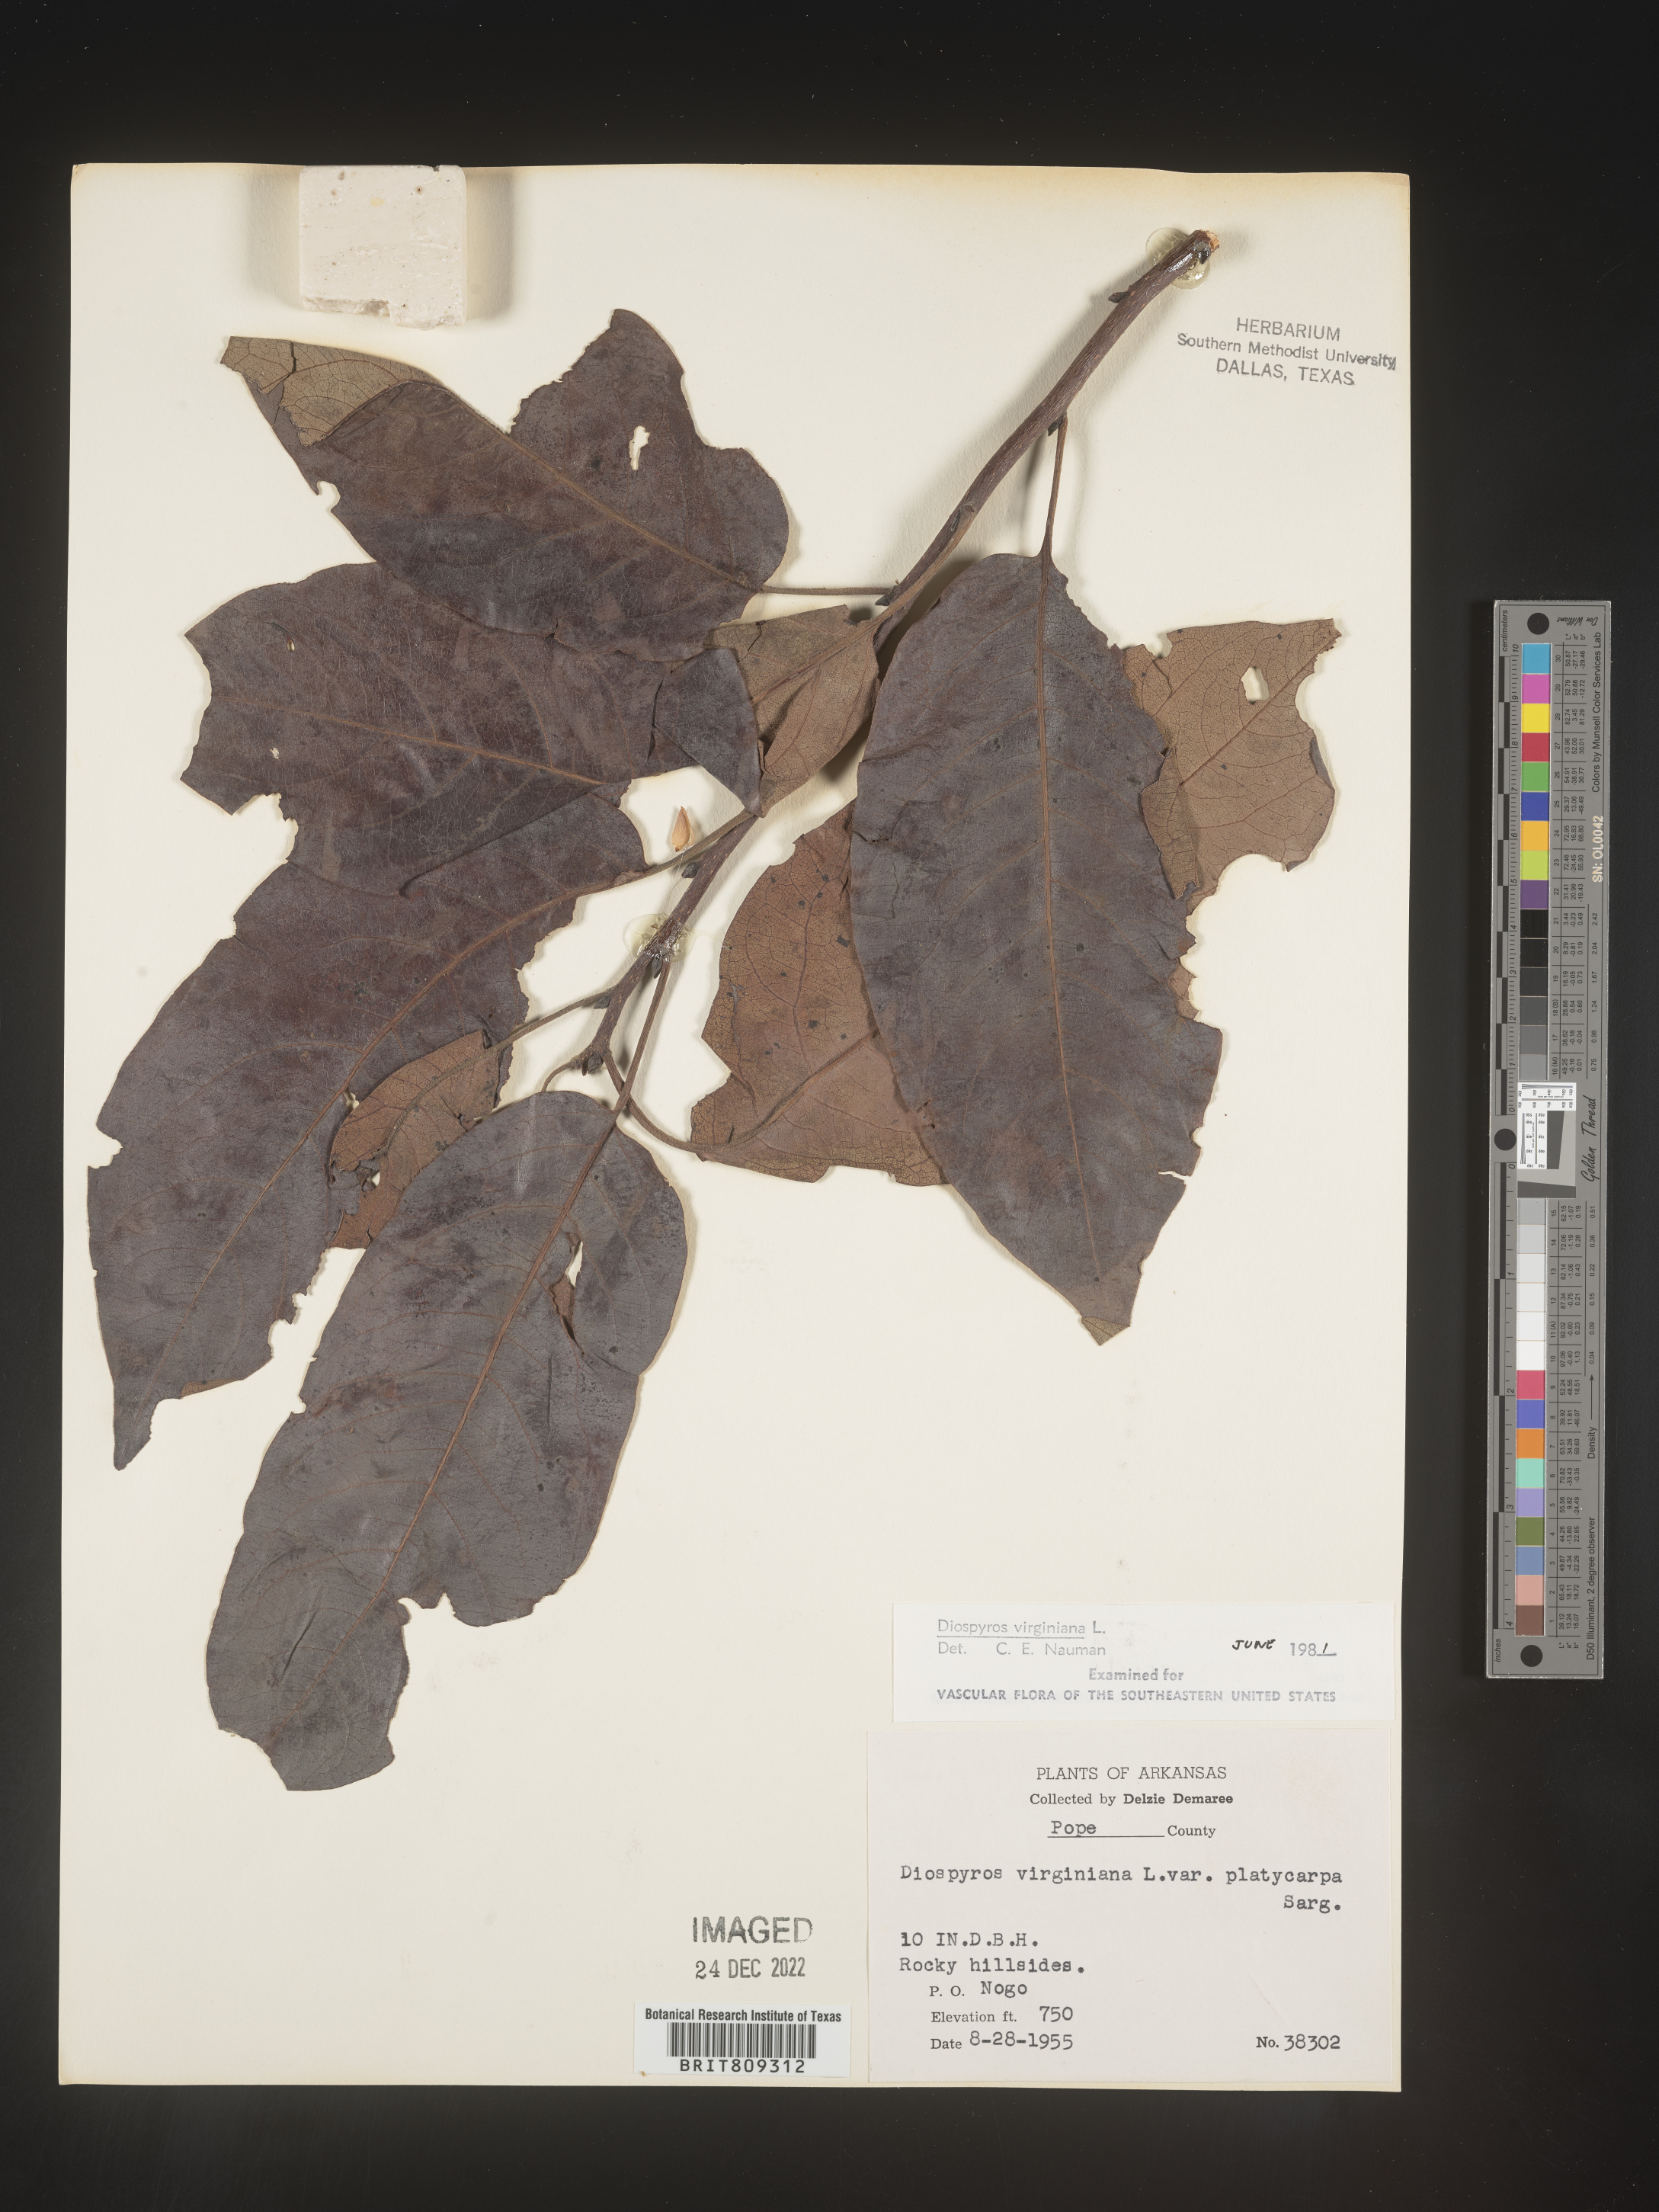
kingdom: Plantae
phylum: Tracheophyta
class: Magnoliopsida
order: Ericales
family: Ebenaceae
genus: Diospyros
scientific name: Diospyros virginiana
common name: Persimmon
